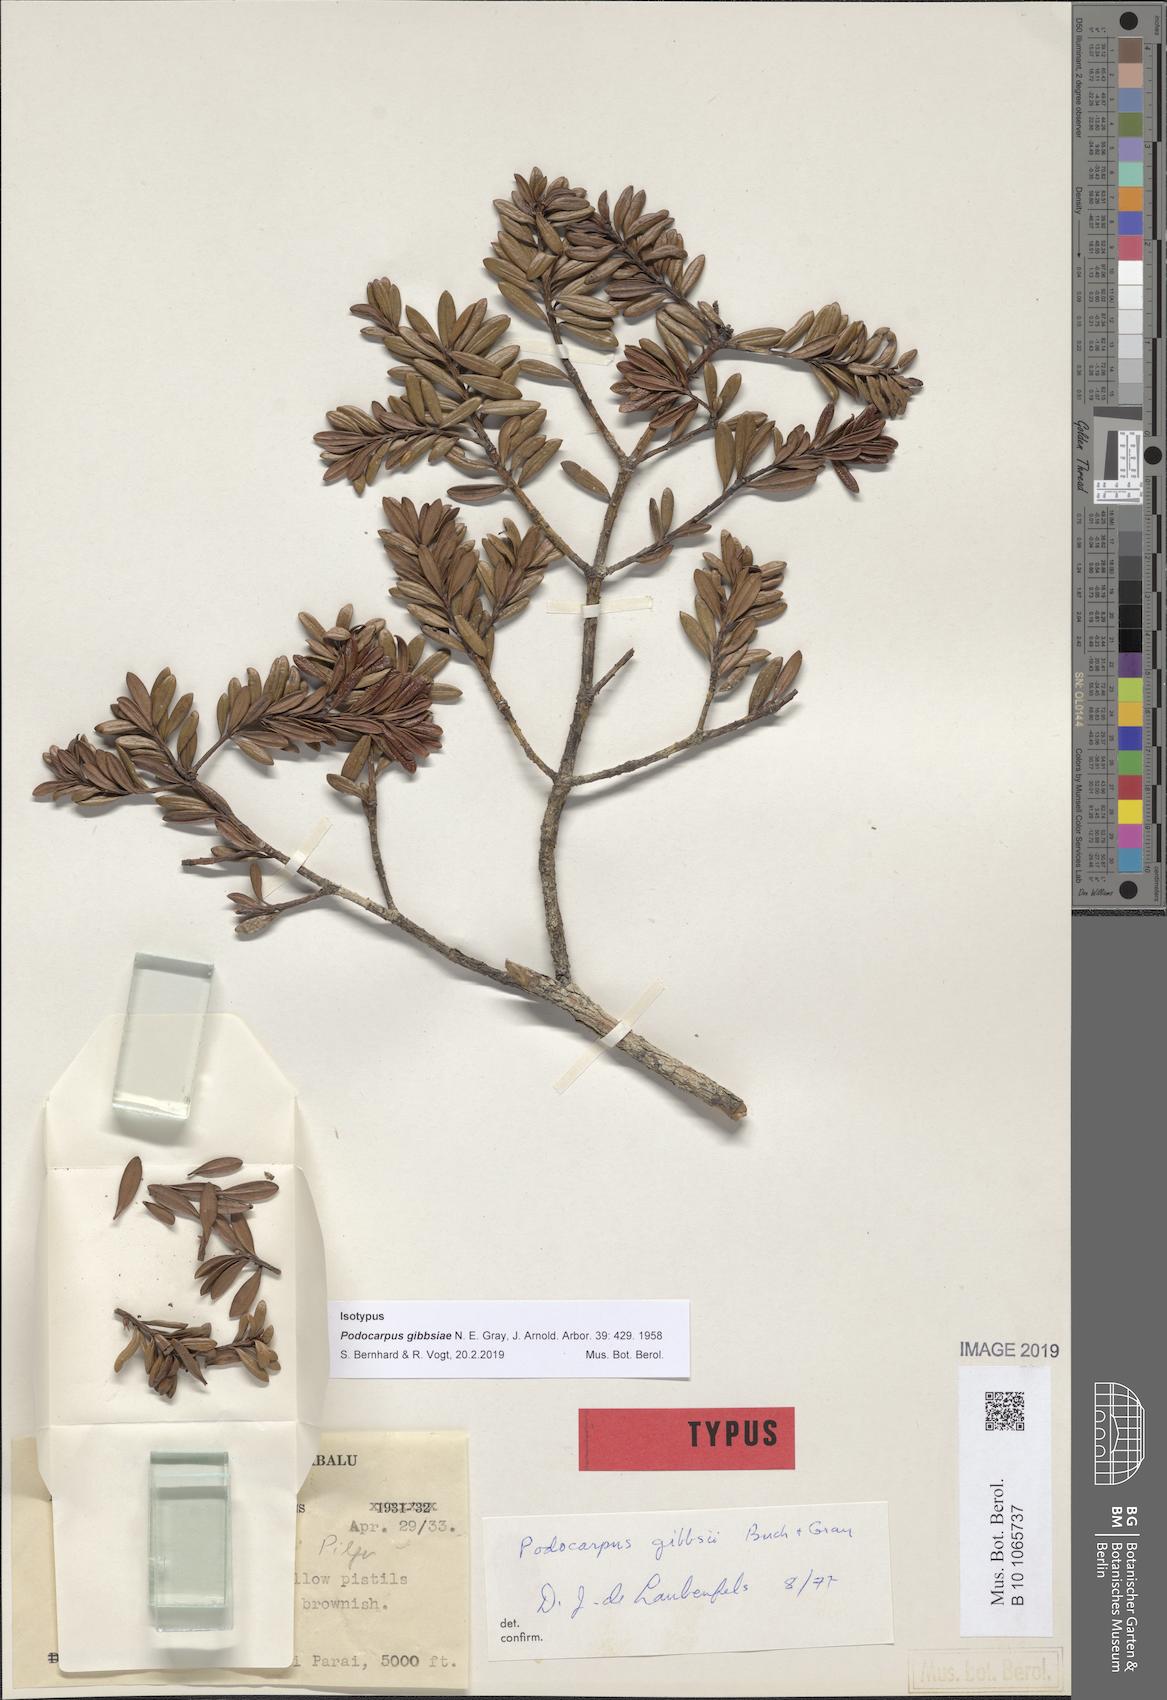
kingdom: Plantae
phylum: Tracheophyta
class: Pinopsida
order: Pinales
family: Podocarpaceae
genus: Podocarpus
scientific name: Podocarpus gibbsiae
